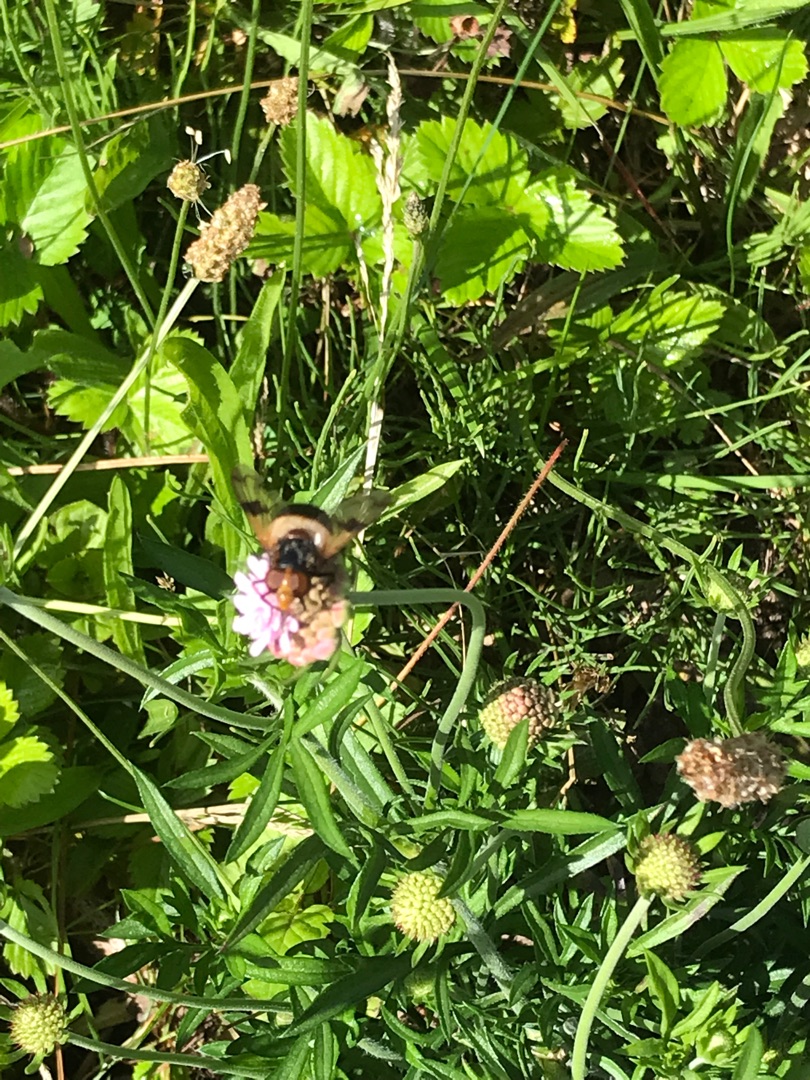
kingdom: Animalia
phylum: Arthropoda
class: Insecta
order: Diptera
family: Syrphidae
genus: Volucella
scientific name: Volucella pellucens
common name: Hvidbåndet humlesvirreflue
